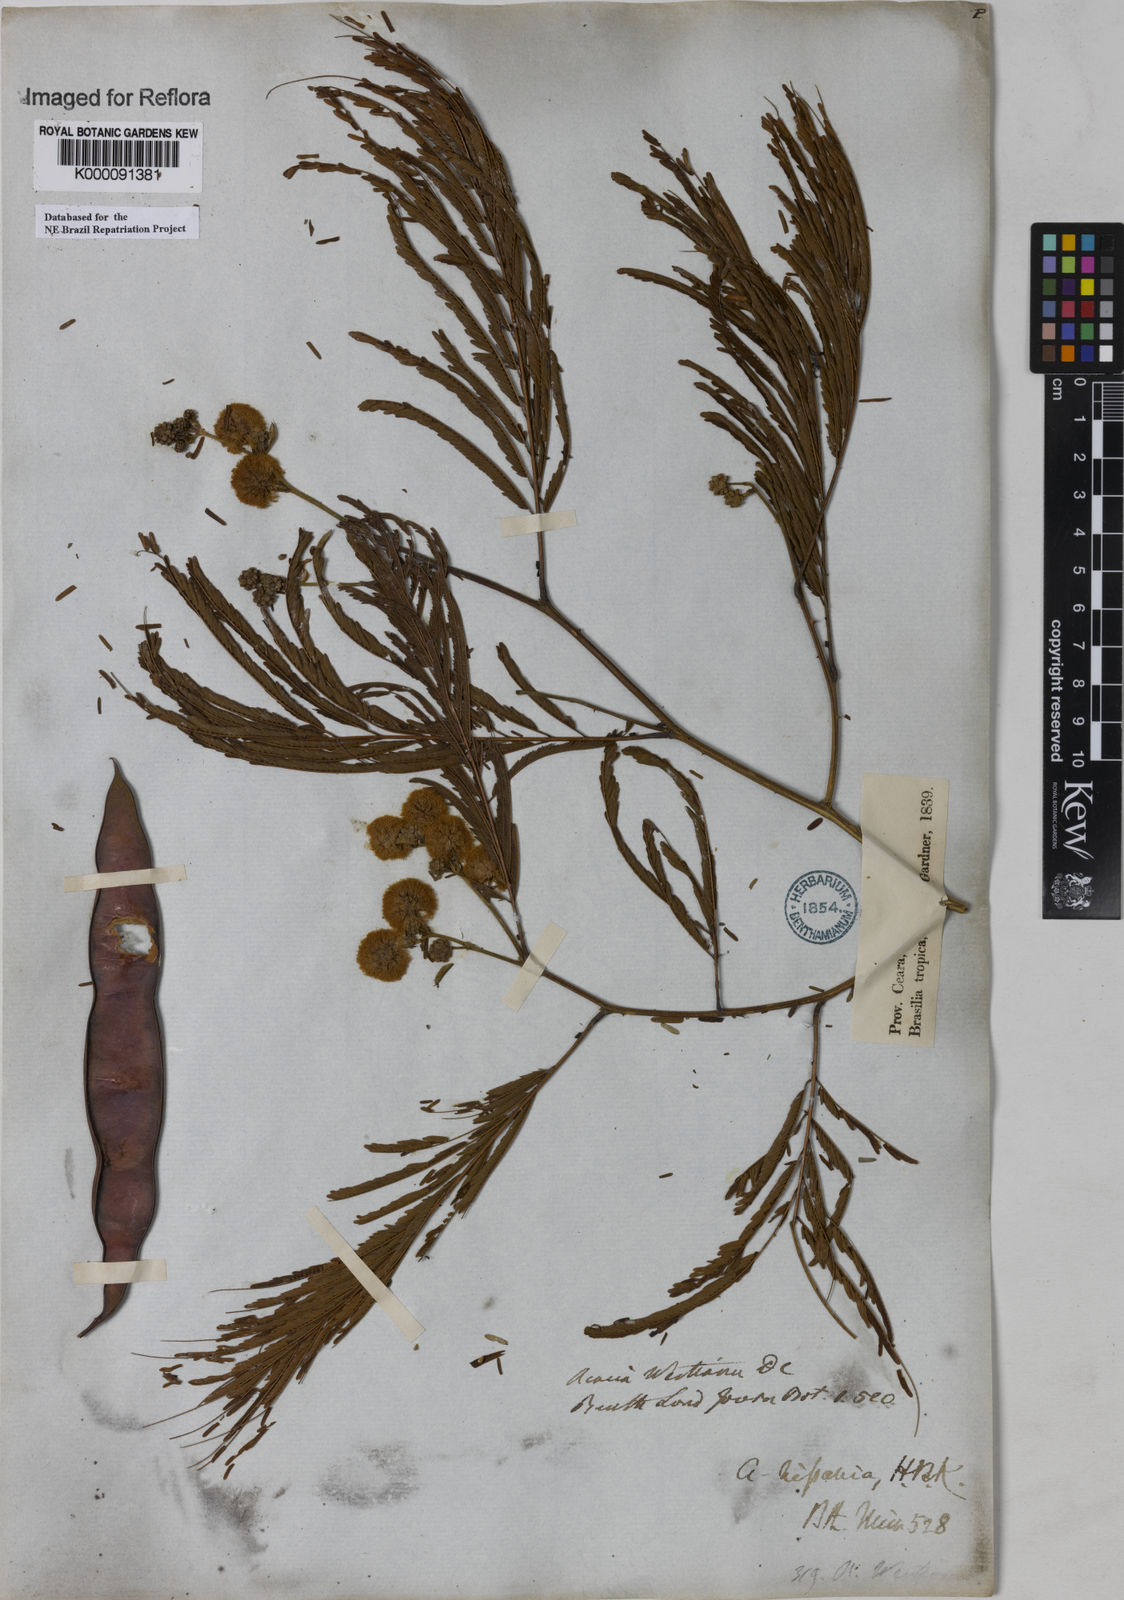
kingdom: Plantae
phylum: Tracheophyta
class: Magnoliopsida
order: Fabales
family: Fabaceae
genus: Senegalia
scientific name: Senegalia riparia
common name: Catch-and-keep
